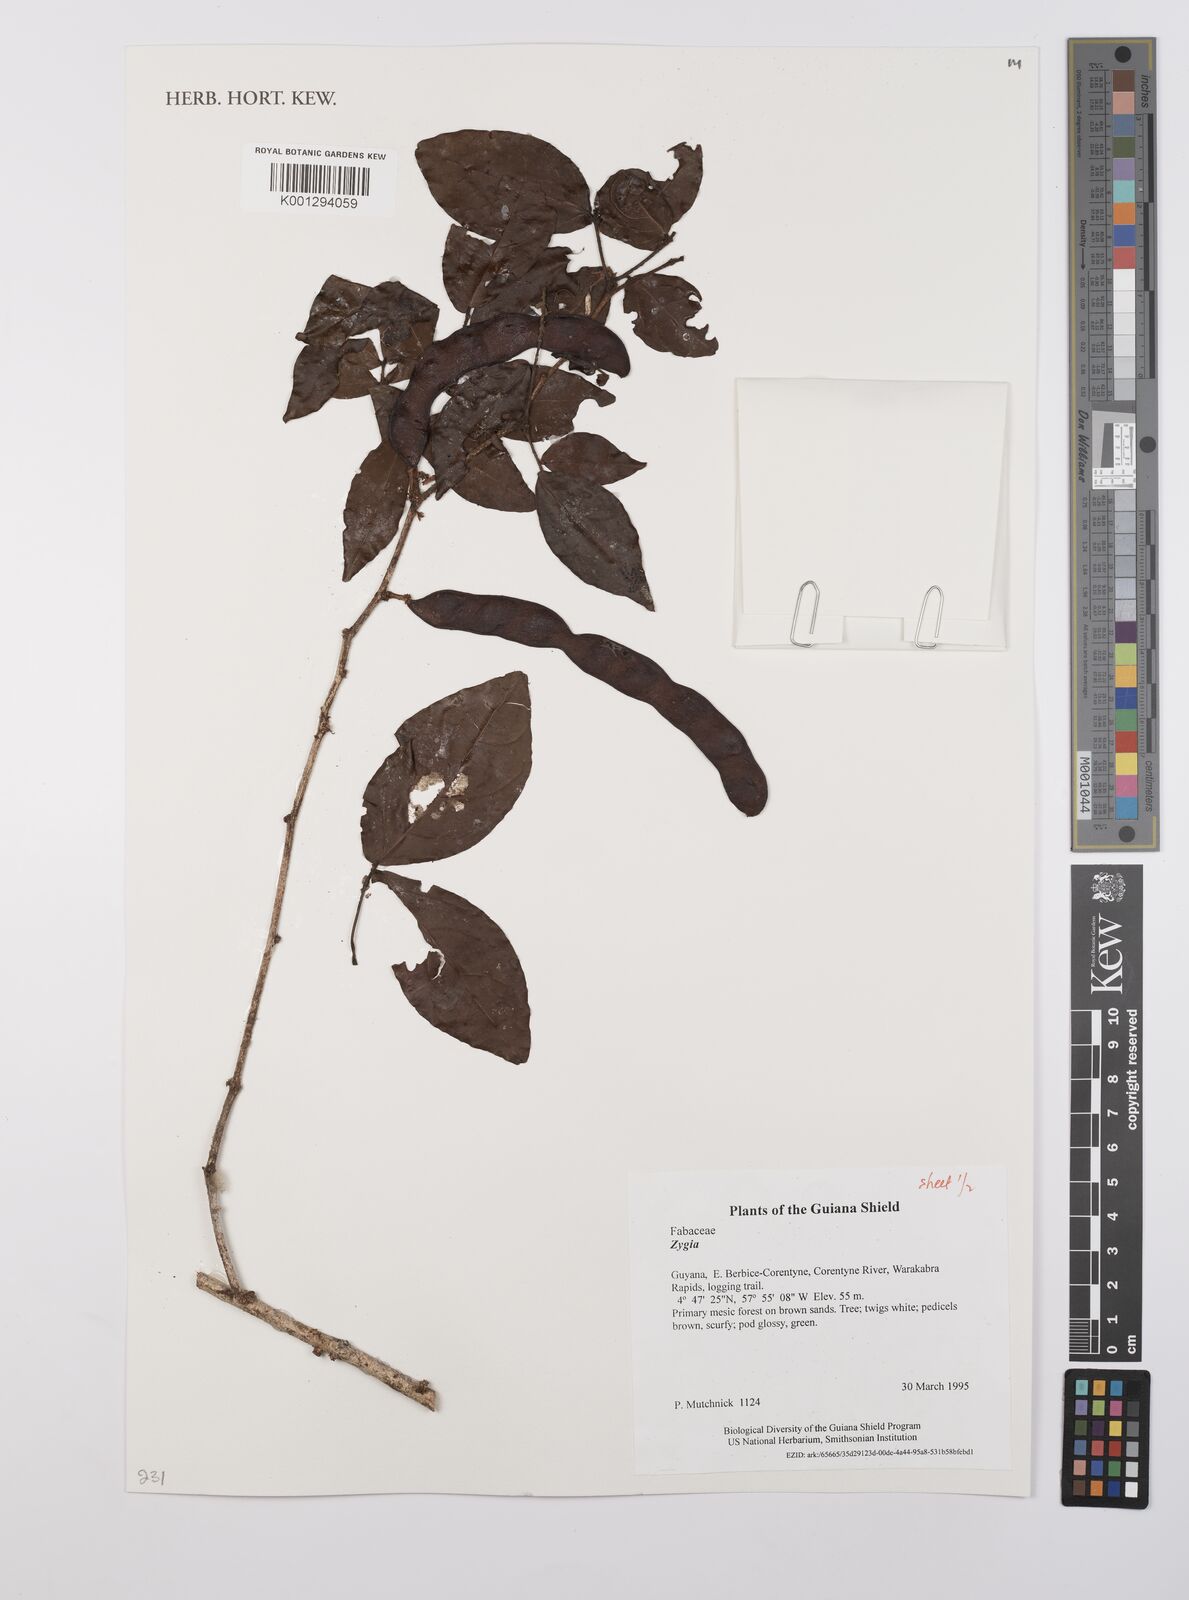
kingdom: Plantae
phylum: Tracheophyta
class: Magnoliopsida
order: Fabales
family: Fabaceae
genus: Zygia
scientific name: Zygia
